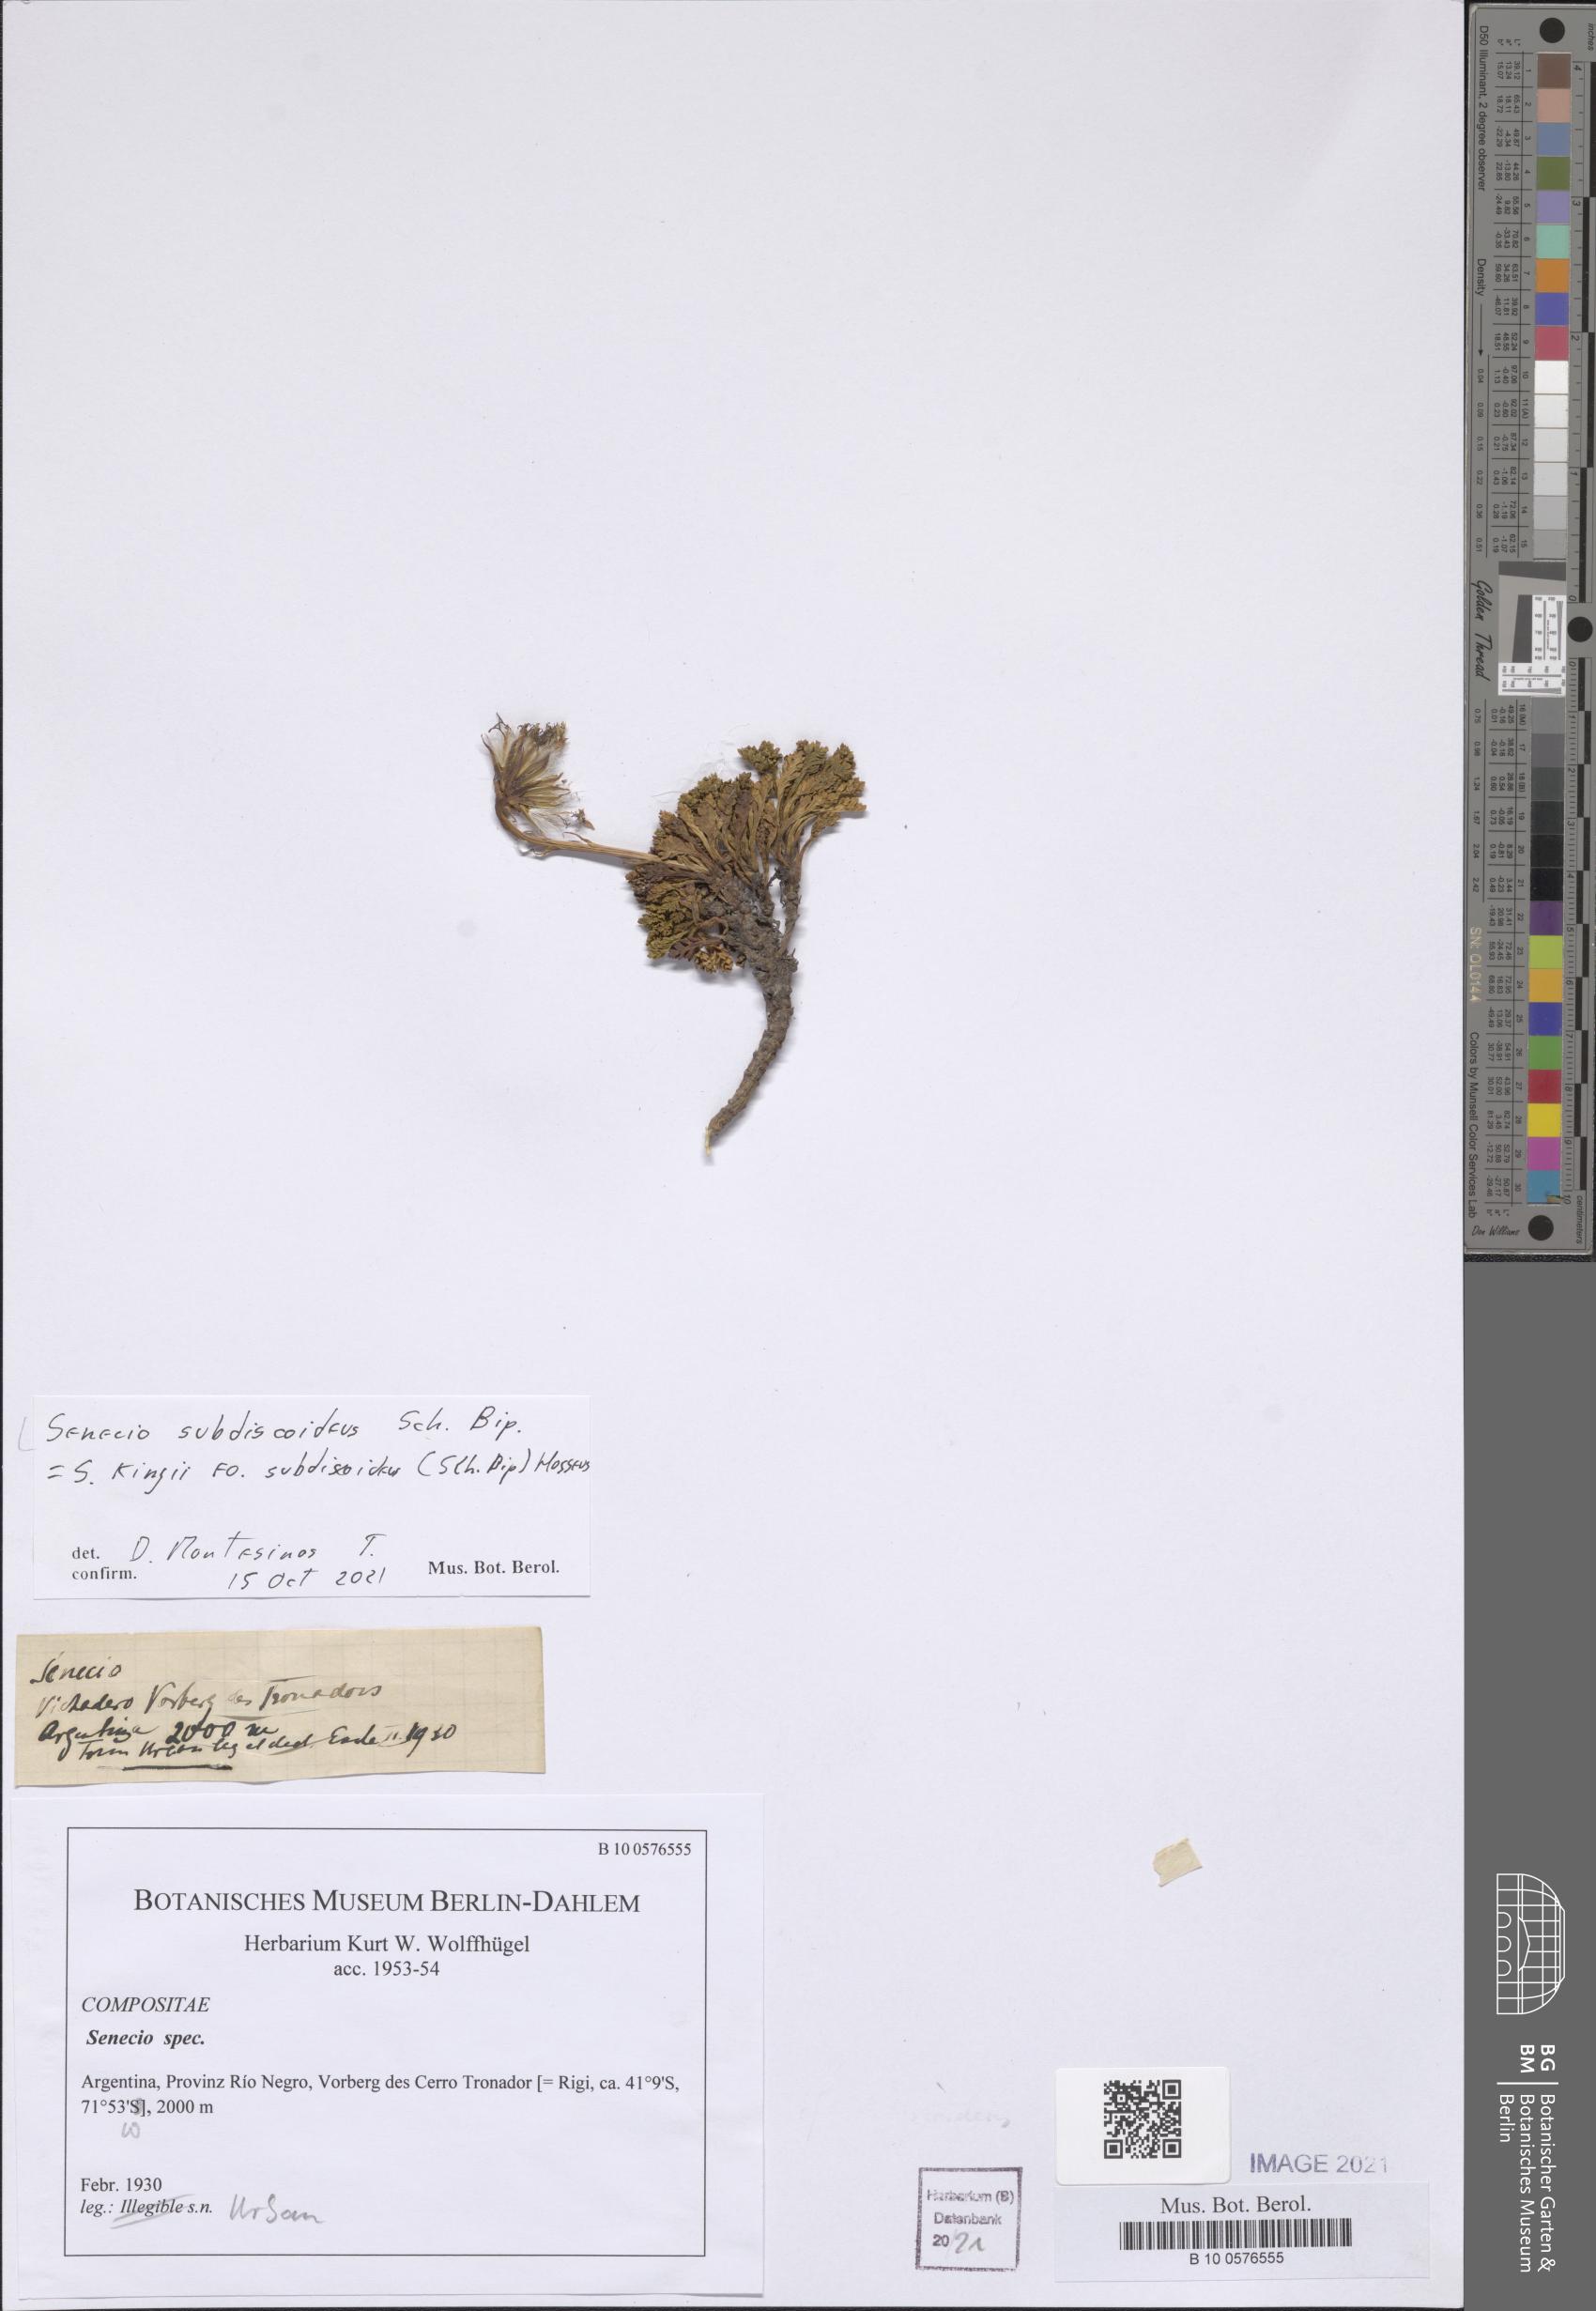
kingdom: Plantae
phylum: Tracheophyta
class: Magnoliopsida
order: Asterales
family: Asteraceae
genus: Senecio
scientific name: Senecio kingii
